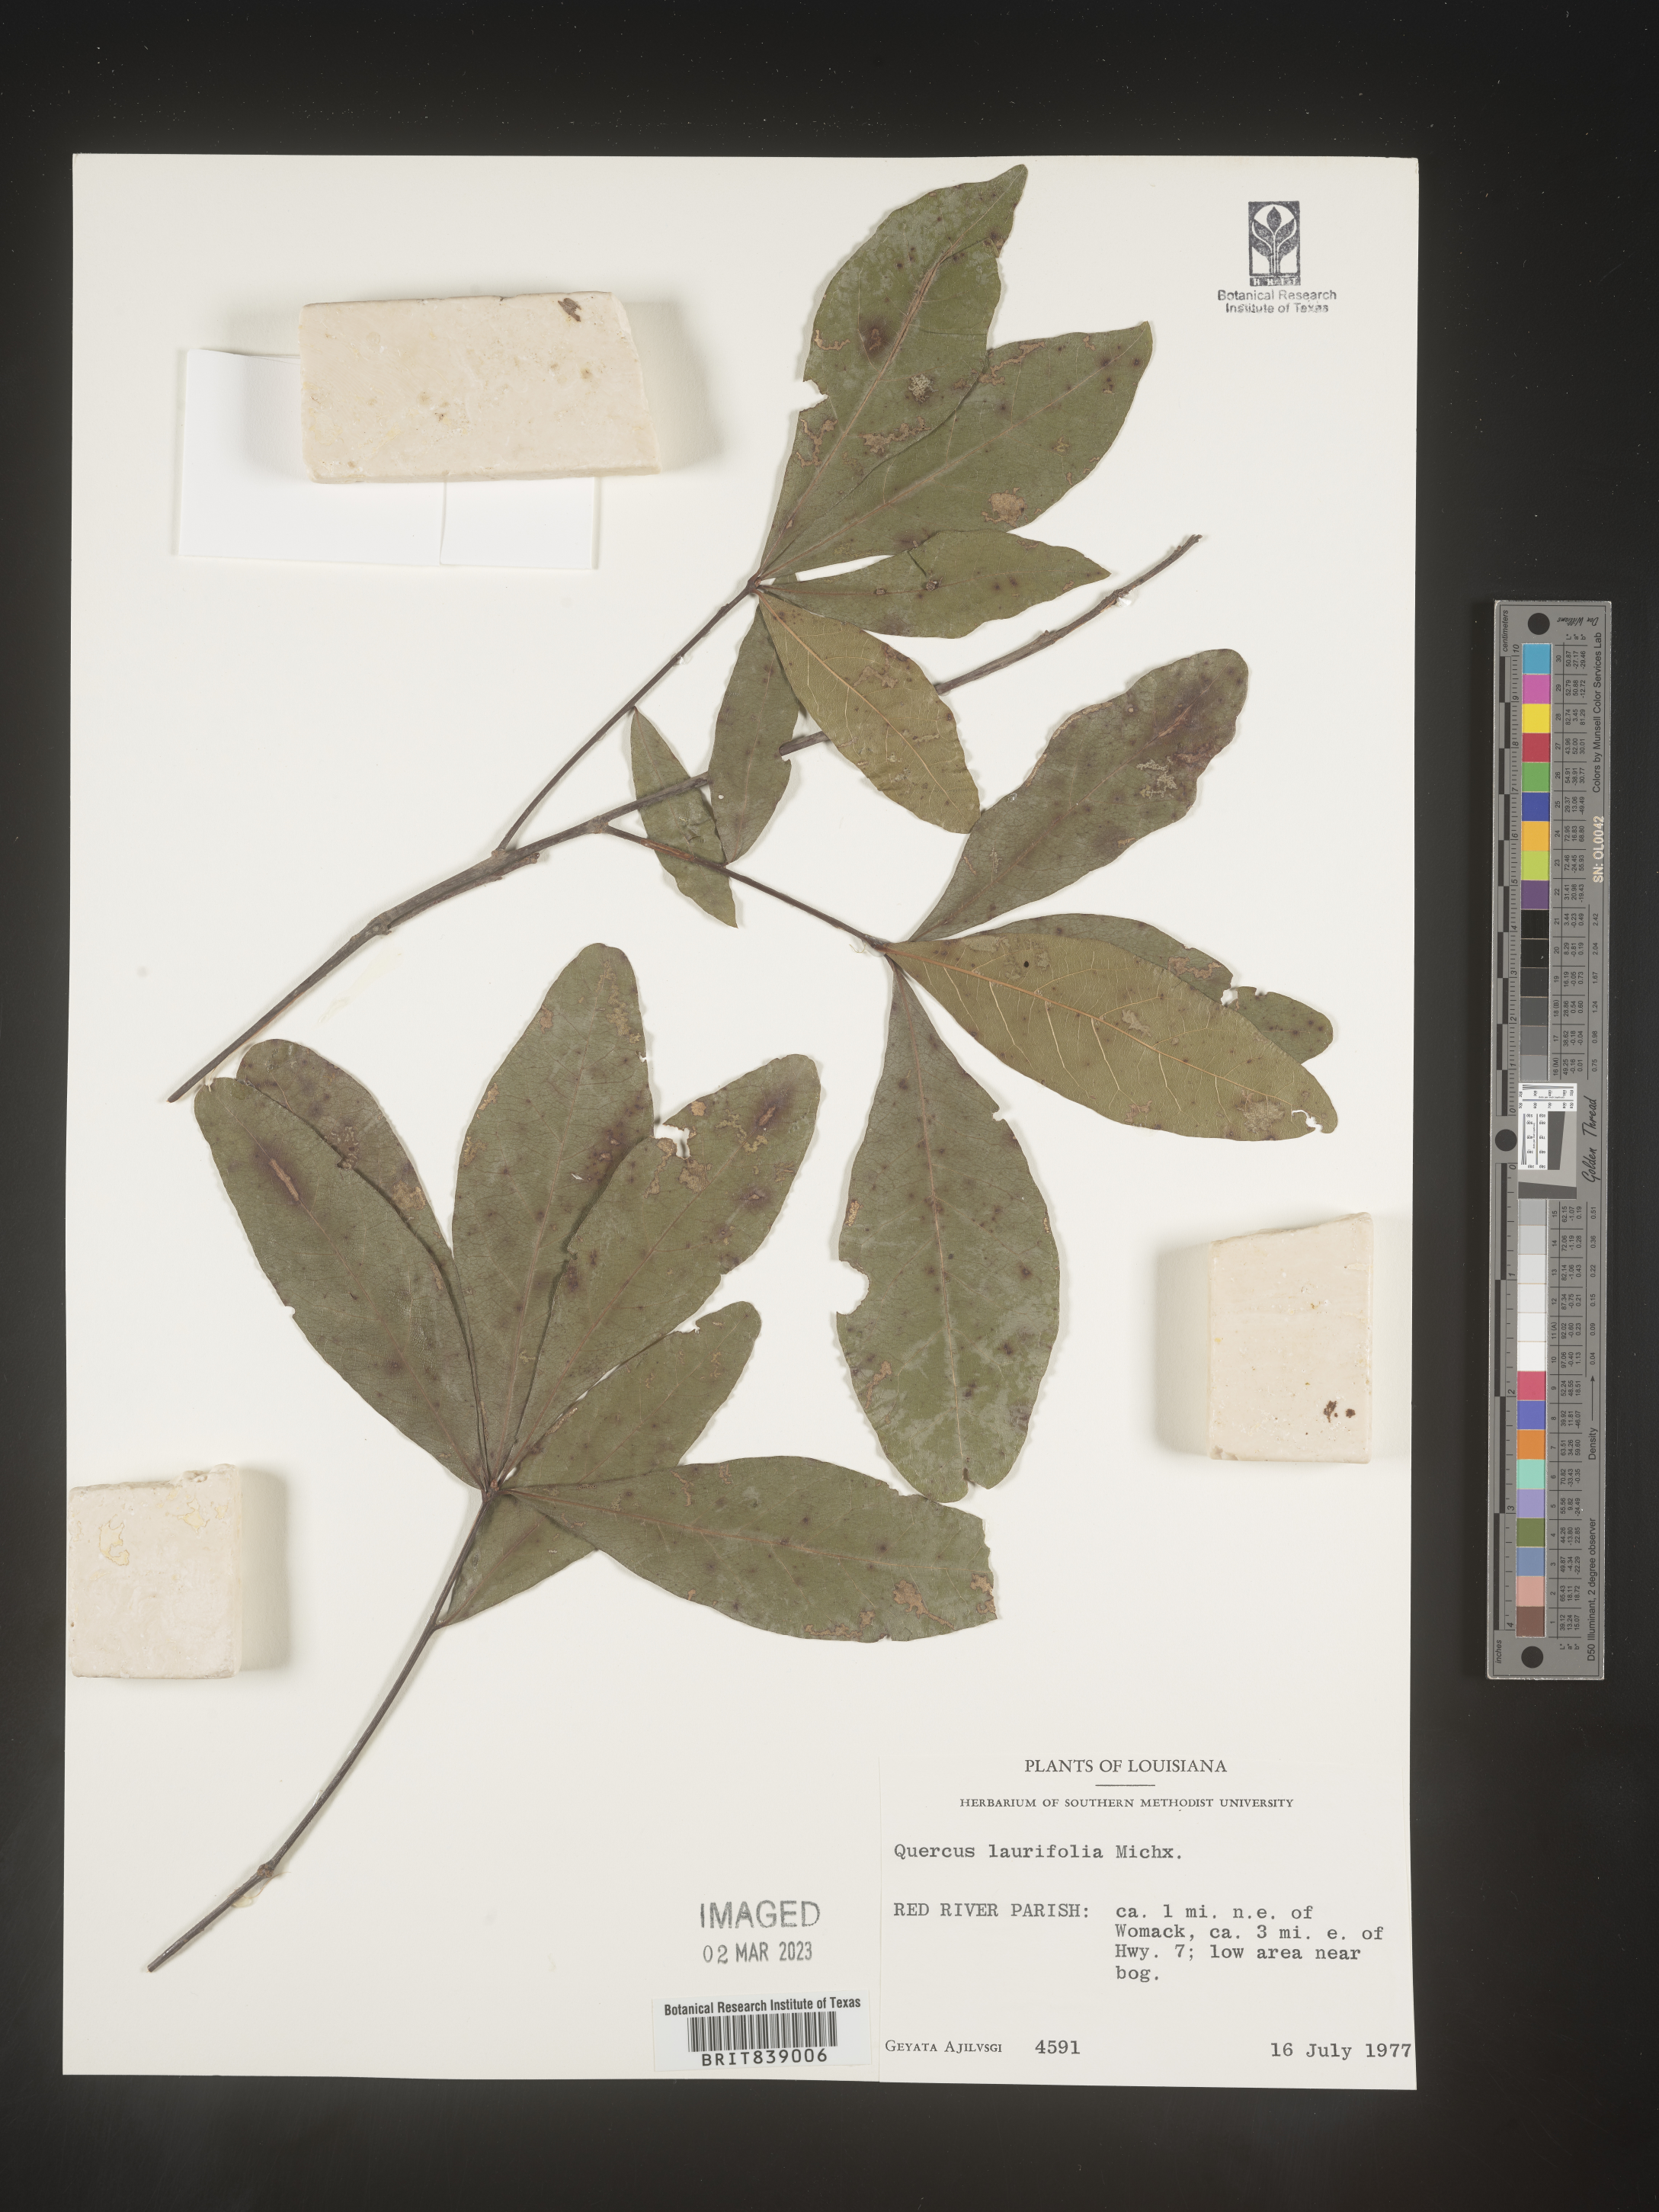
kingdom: Plantae
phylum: Tracheophyta
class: Magnoliopsida
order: Fagales
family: Fagaceae
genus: Quercus
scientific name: Quercus laurifolia
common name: Swamp laurel oak
